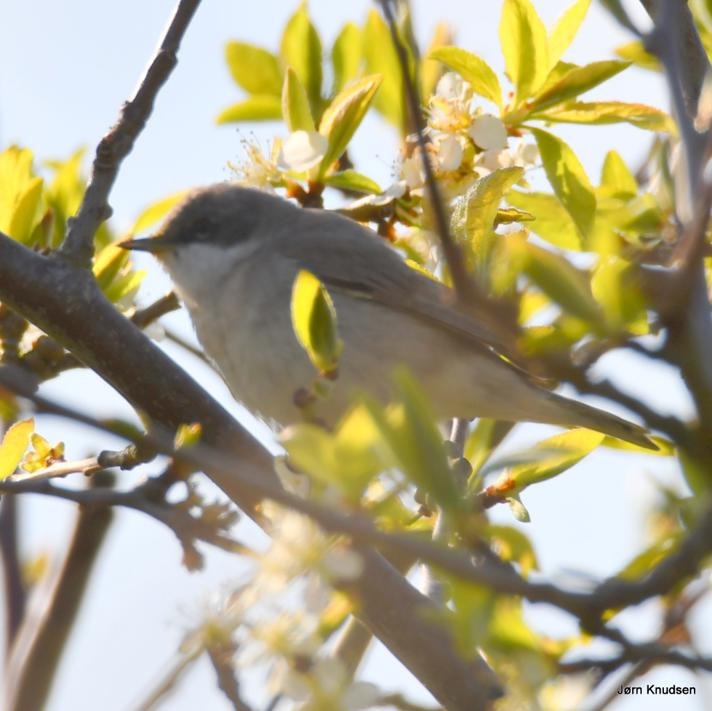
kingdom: Animalia
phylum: Chordata
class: Aves
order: Passeriformes
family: Sylviidae
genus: Sylvia
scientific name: Sylvia curruca
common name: Gærdesanger
